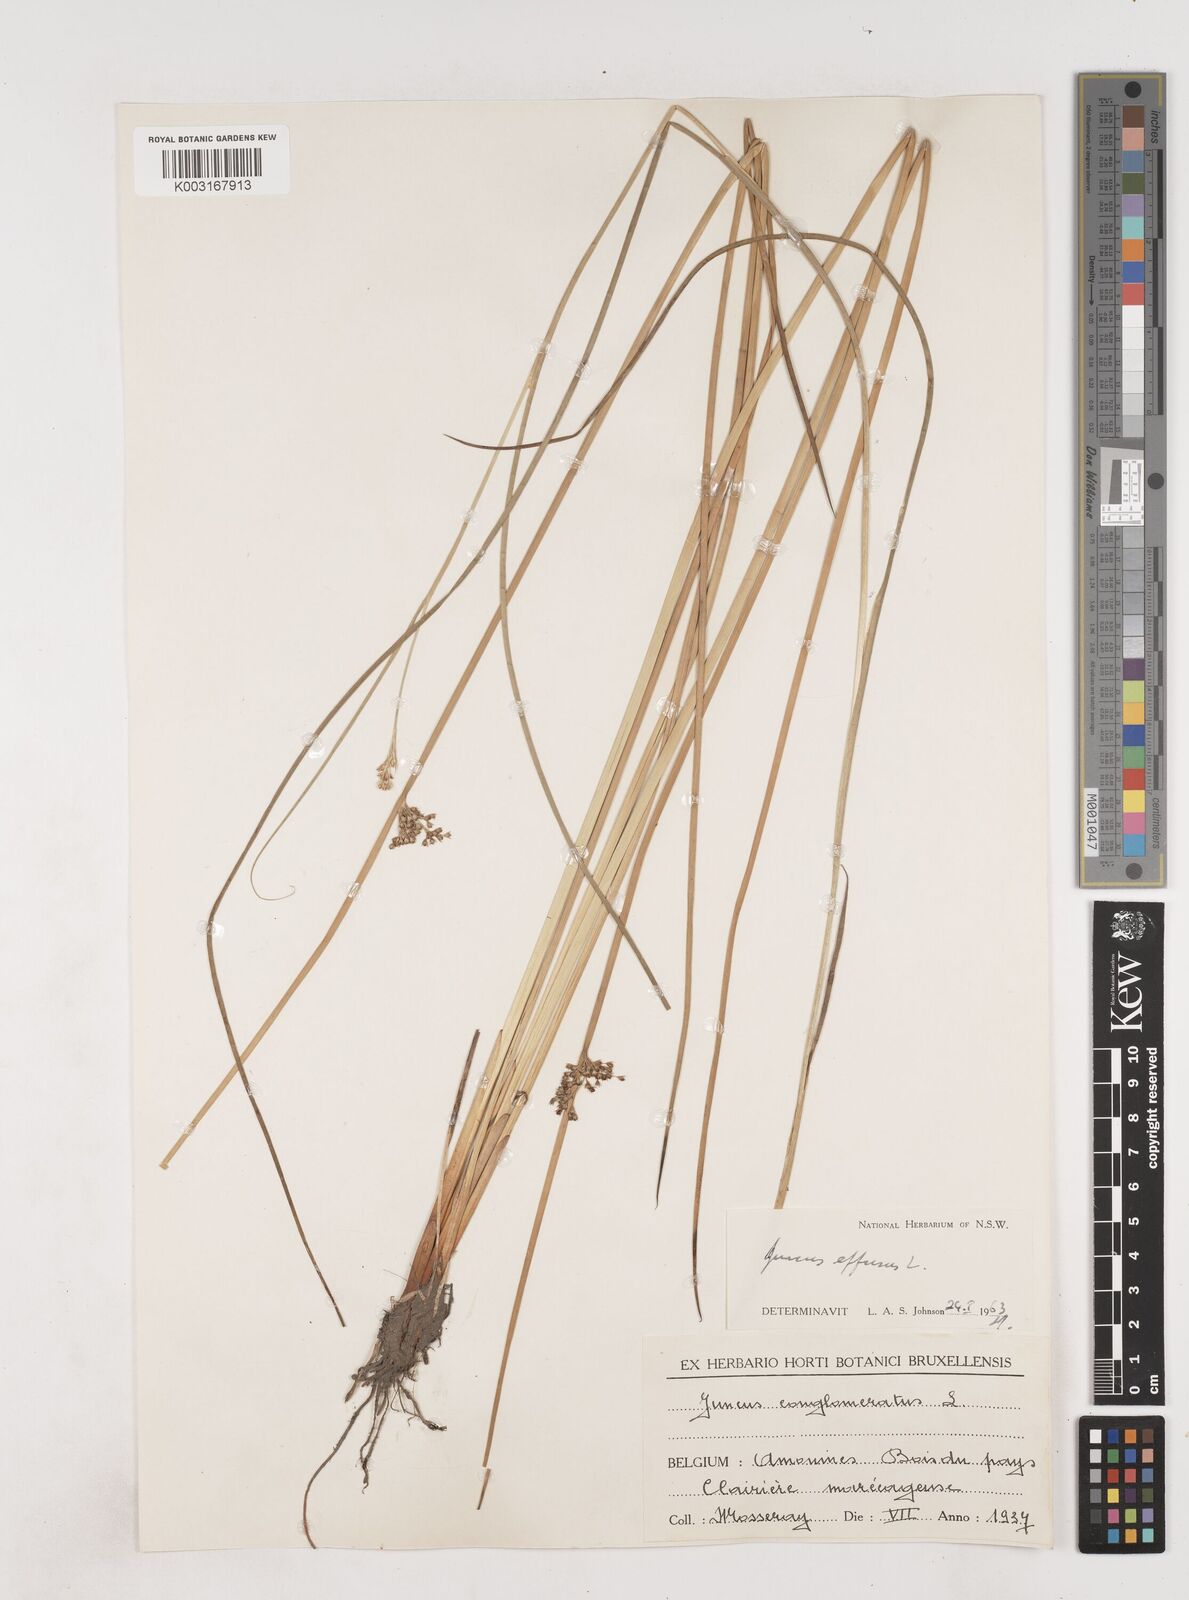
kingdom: Plantae
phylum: Tracheophyta
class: Liliopsida
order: Poales
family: Juncaceae
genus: Juncus
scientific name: Juncus effusus
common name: Soft rush
